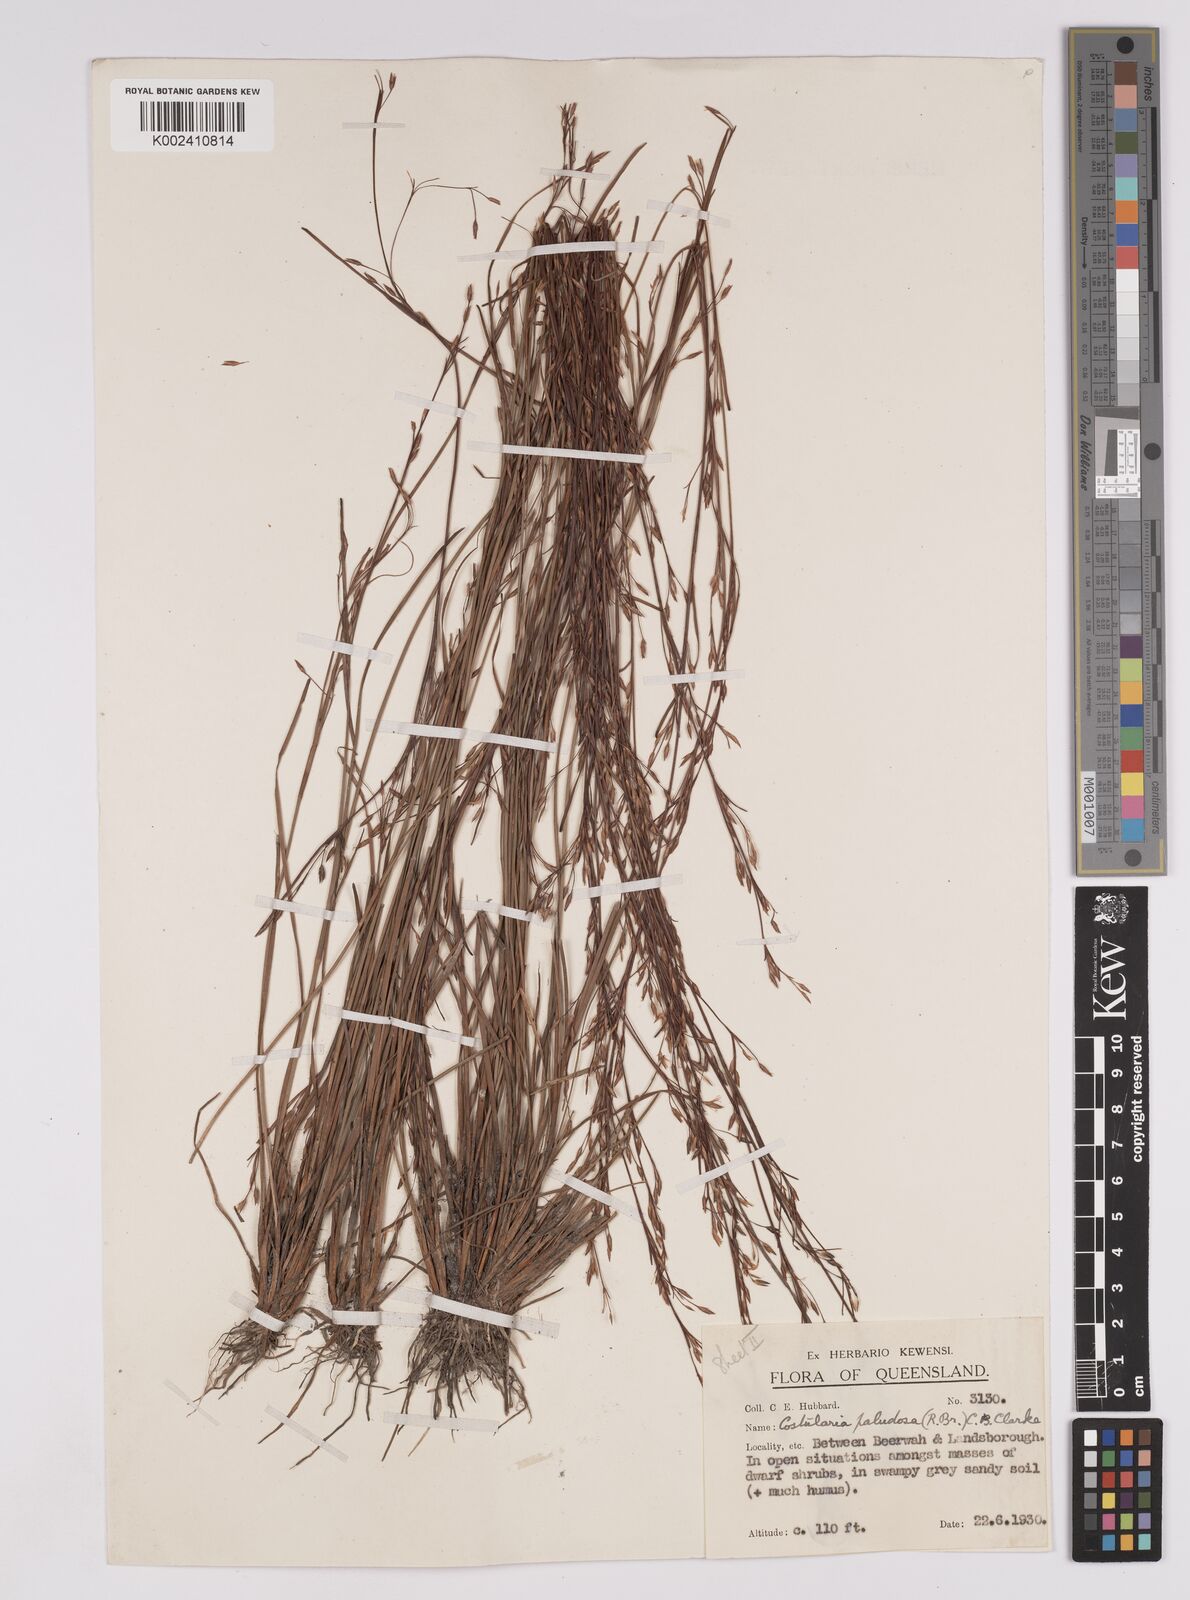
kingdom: Plantae
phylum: Tracheophyta
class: Liliopsida
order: Poales
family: Cyperaceae
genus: Anthelepis
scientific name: Anthelepis paludosa
